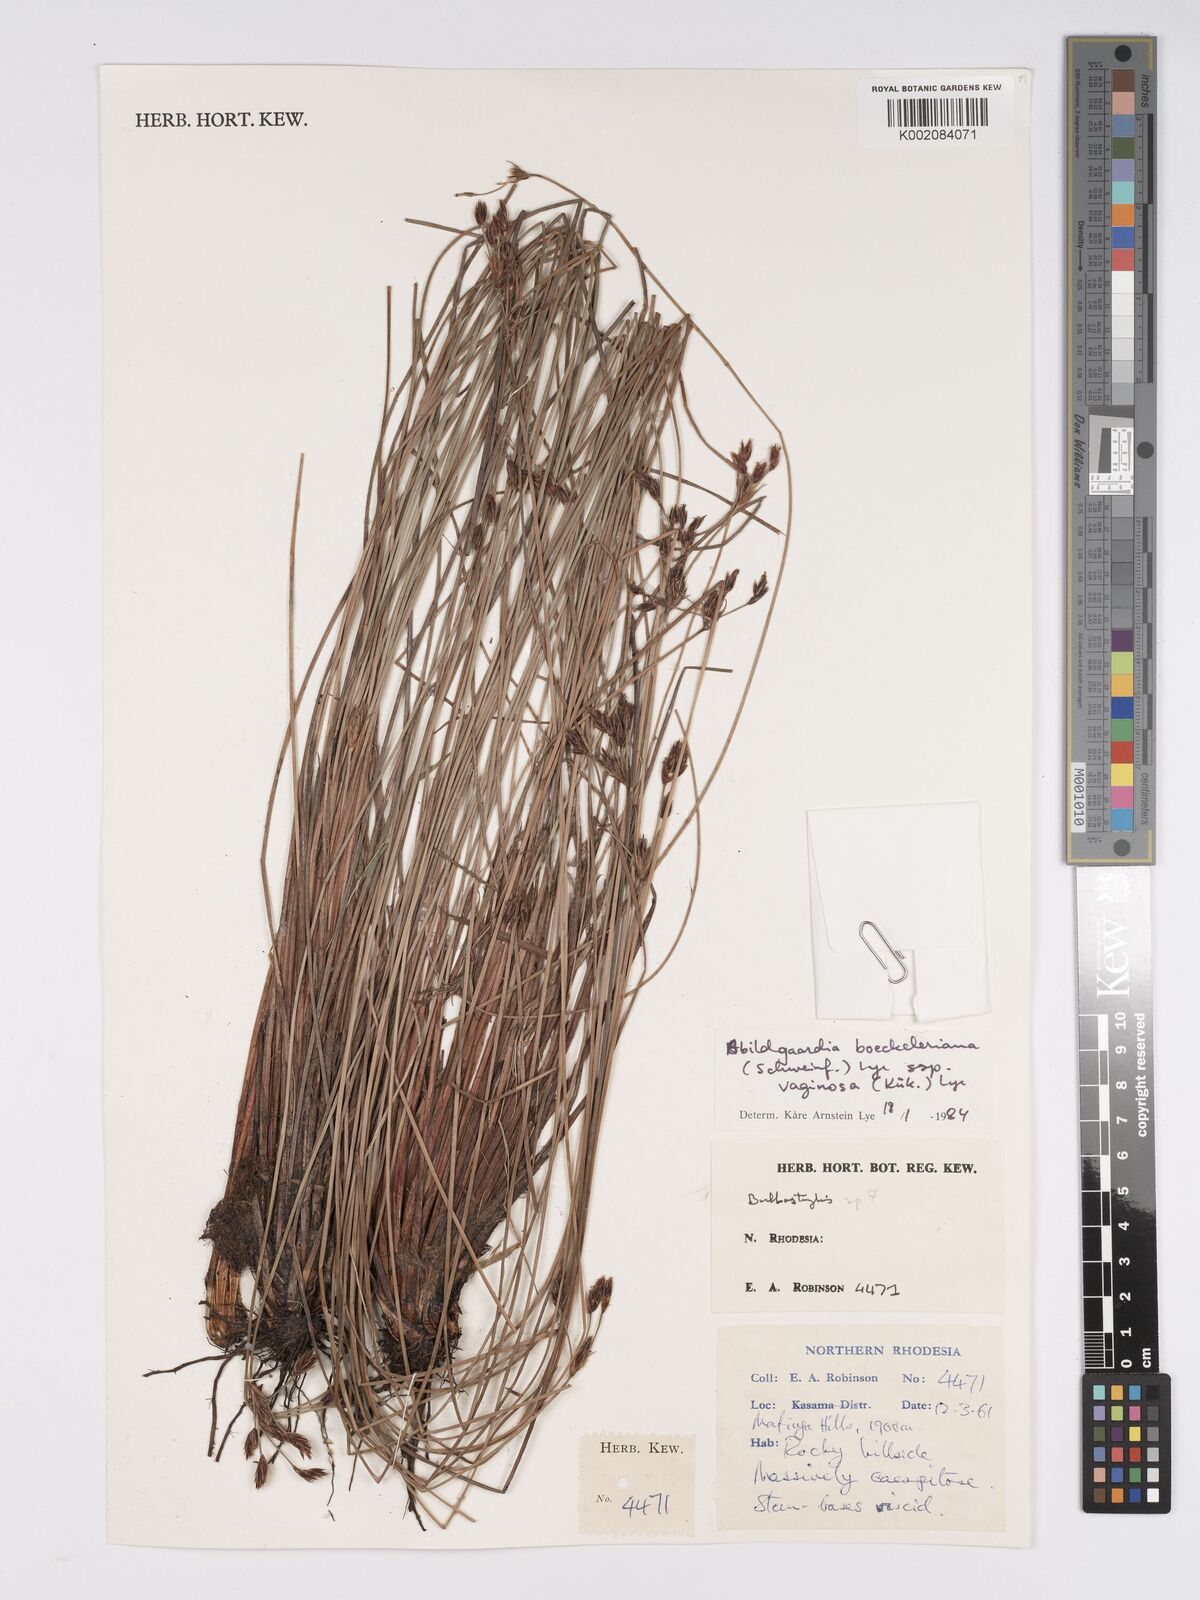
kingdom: Plantae
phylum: Tracheophyta
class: Liliopsida
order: Poales
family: Cyperaceae
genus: Bulbostylis
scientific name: Bulbostylis boeckeleriana
